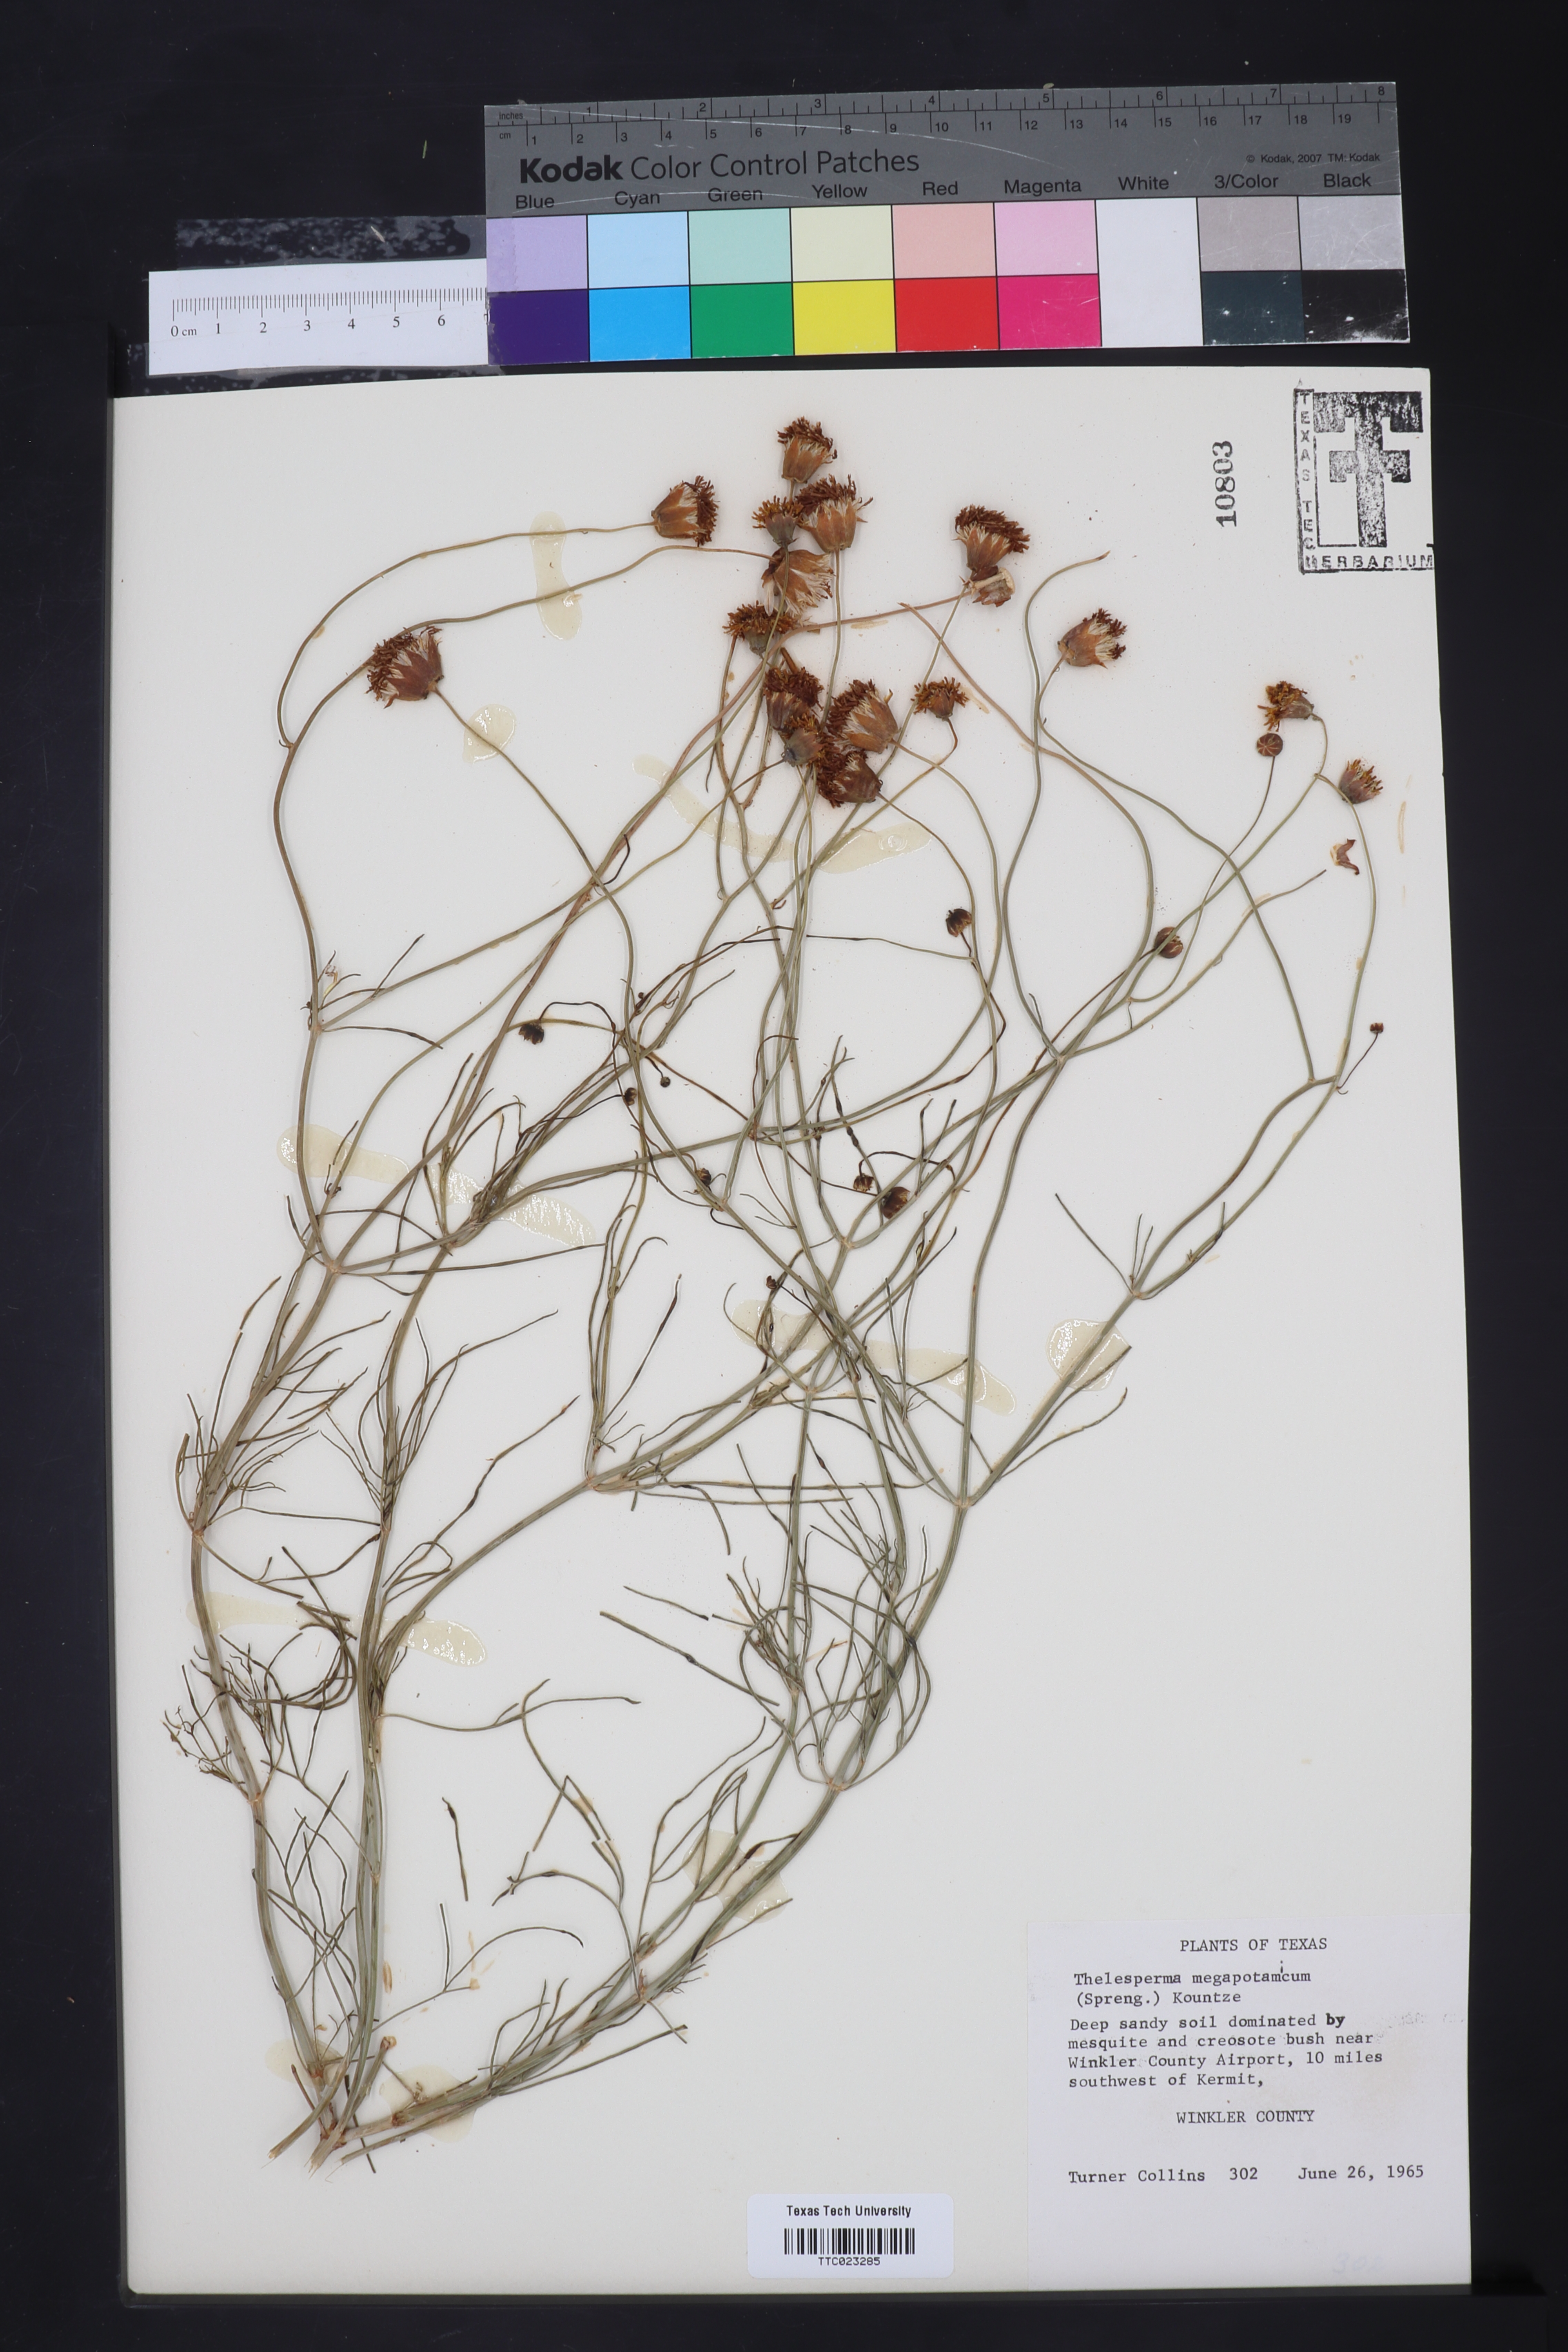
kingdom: Plantae
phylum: Tracheophyta
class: Magnoliopsida
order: Asterales
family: Asteraceae
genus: Thelesperma
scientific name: Thelesperma megapotamicum
